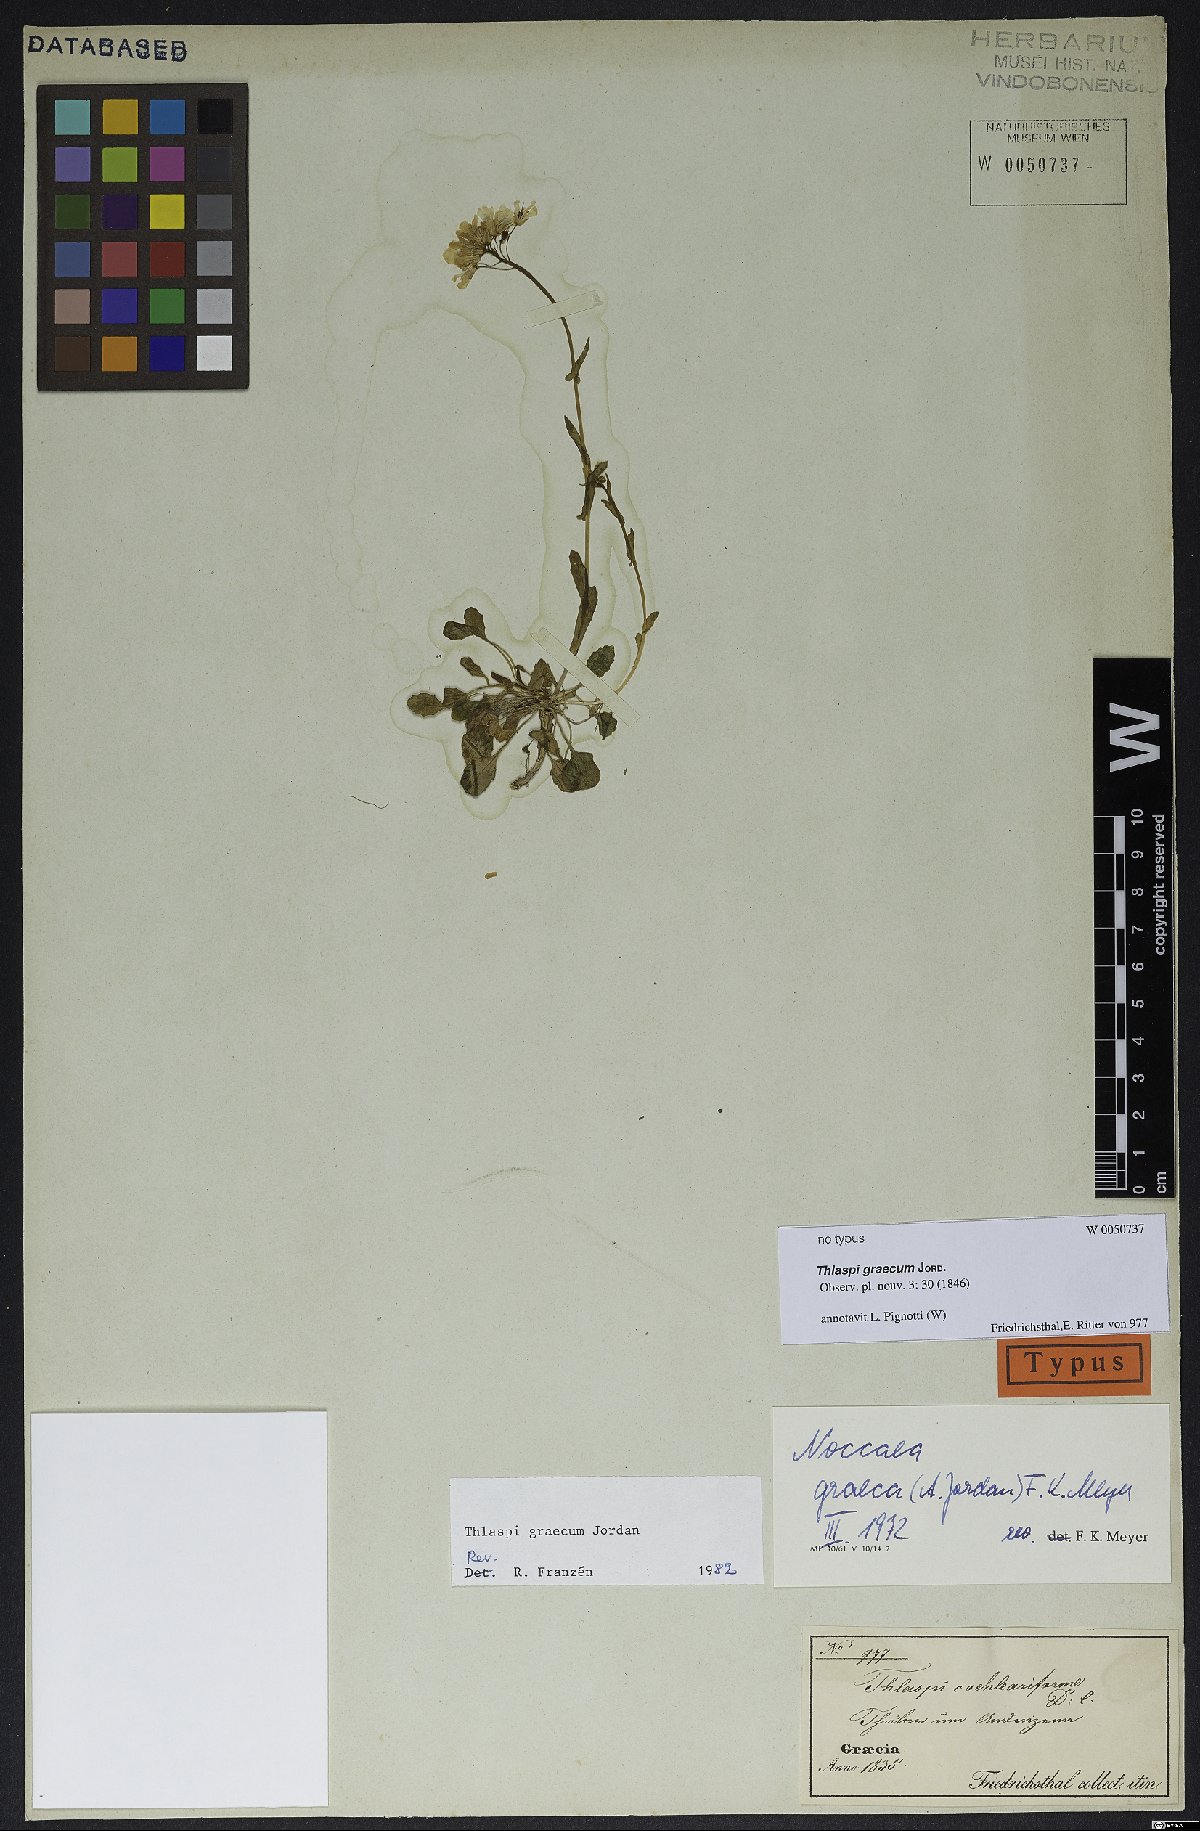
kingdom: Plantae
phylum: Tracheophyta
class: Magnoliopsida
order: Brassicales
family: Brassicaceae
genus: Noccaea
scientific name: Noccaea graeca
